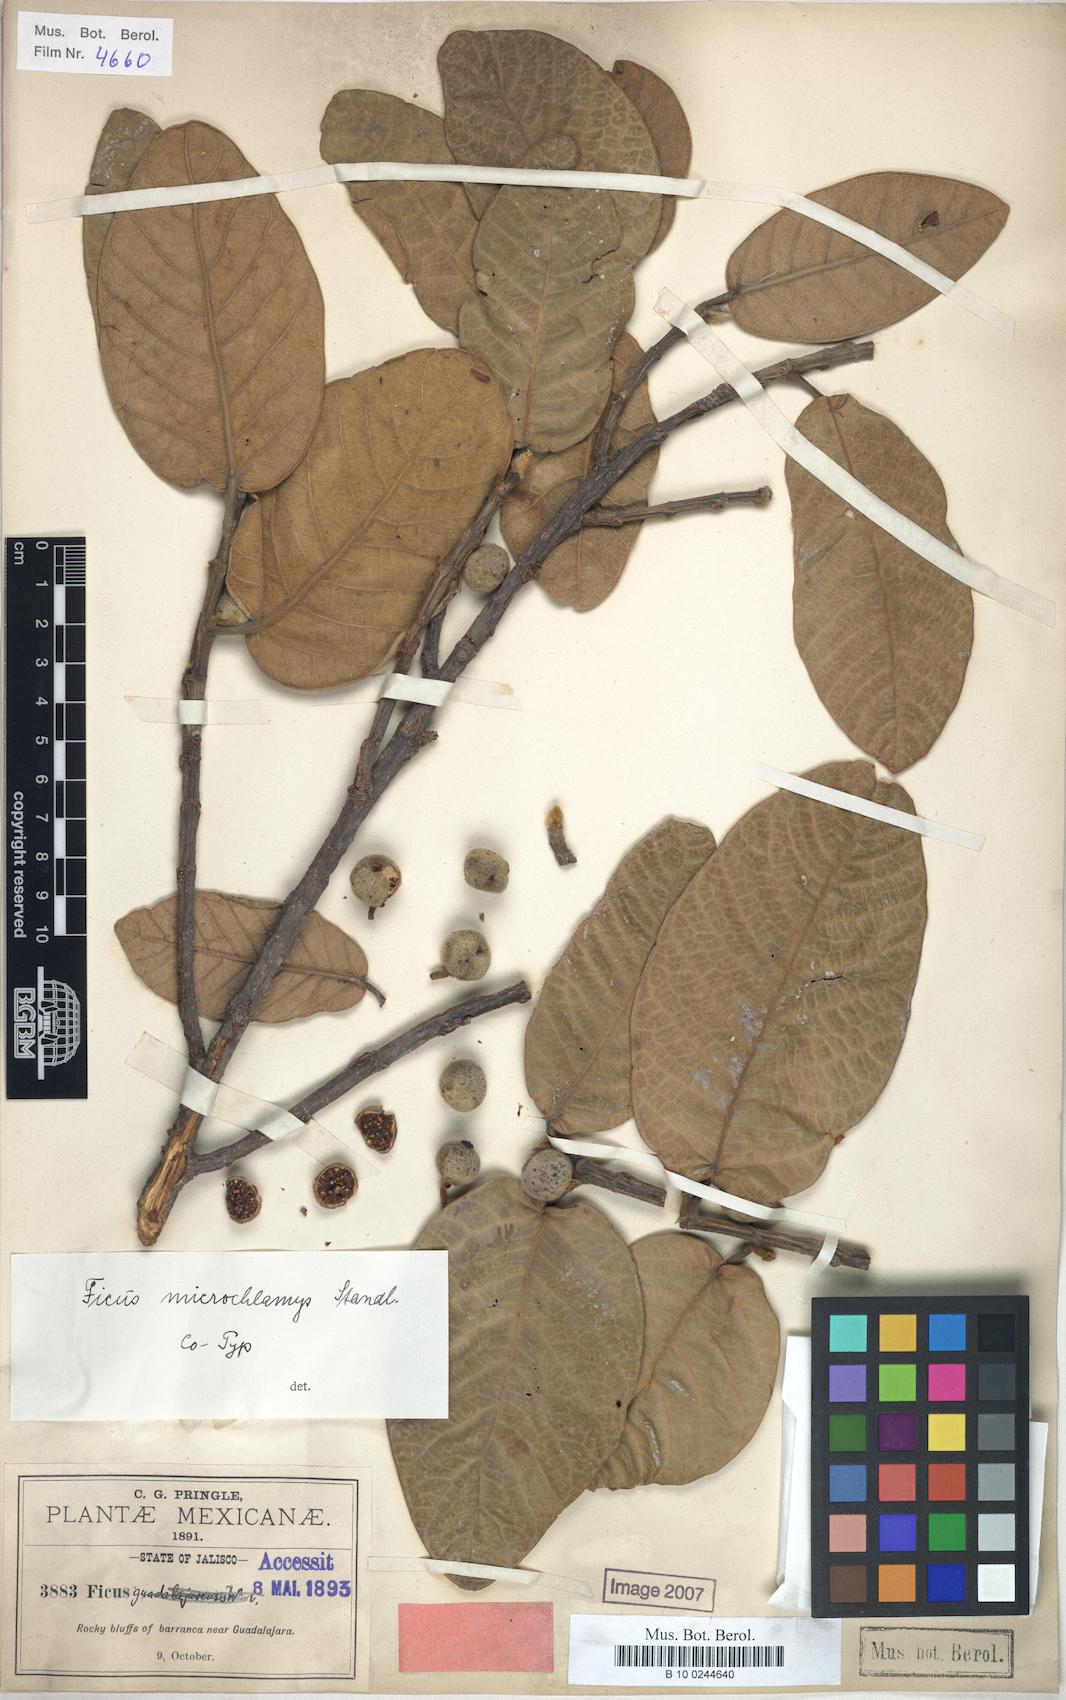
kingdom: Plantae
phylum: Tracheophyta
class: Magnoliopsida
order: Rosales
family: Moraceae
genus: Ficus
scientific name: Ficus velutina
